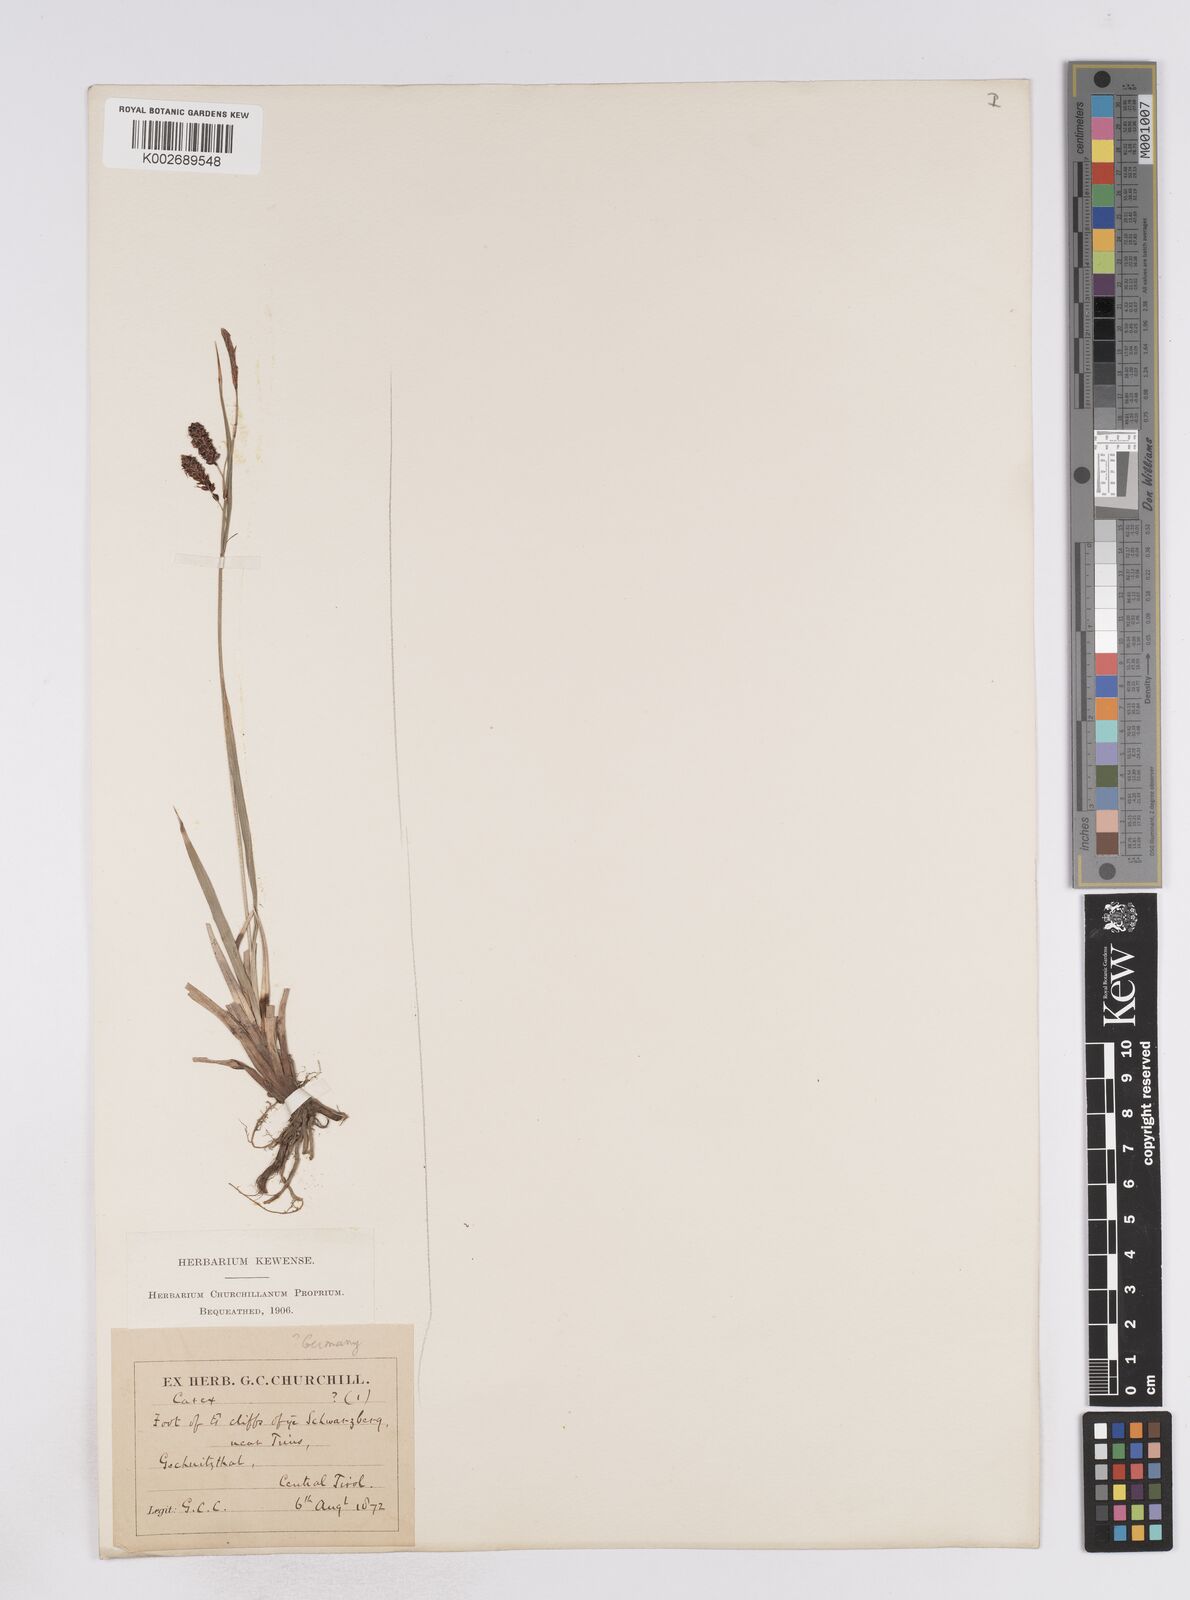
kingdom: Plantae
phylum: Tracheophyta
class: Liliopsida
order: Poales
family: Cyperaceae
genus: Carex
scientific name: Carex flacca
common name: Glaucous sedge
